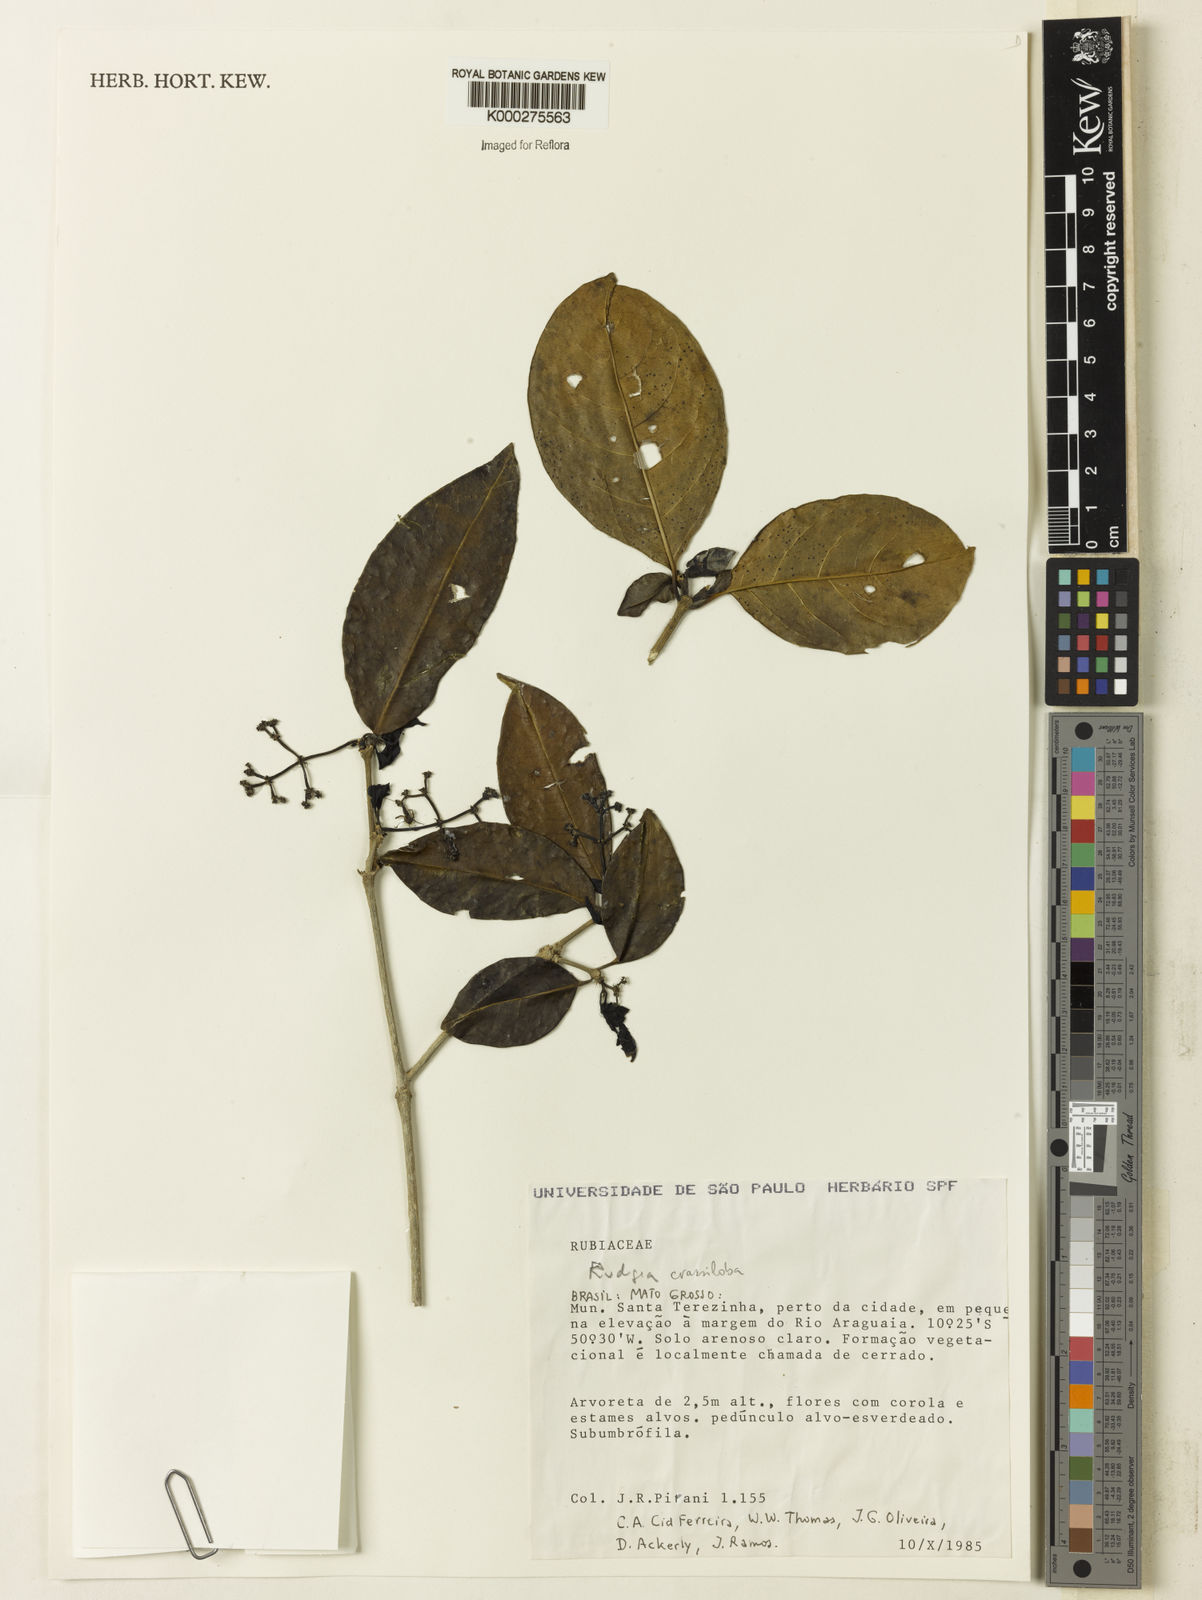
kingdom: Plantae
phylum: Tracheophyta
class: Magnoliopsida
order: Gentianales
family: Rubiaceae
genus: Rudgea
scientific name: Rudgea crassiloba
